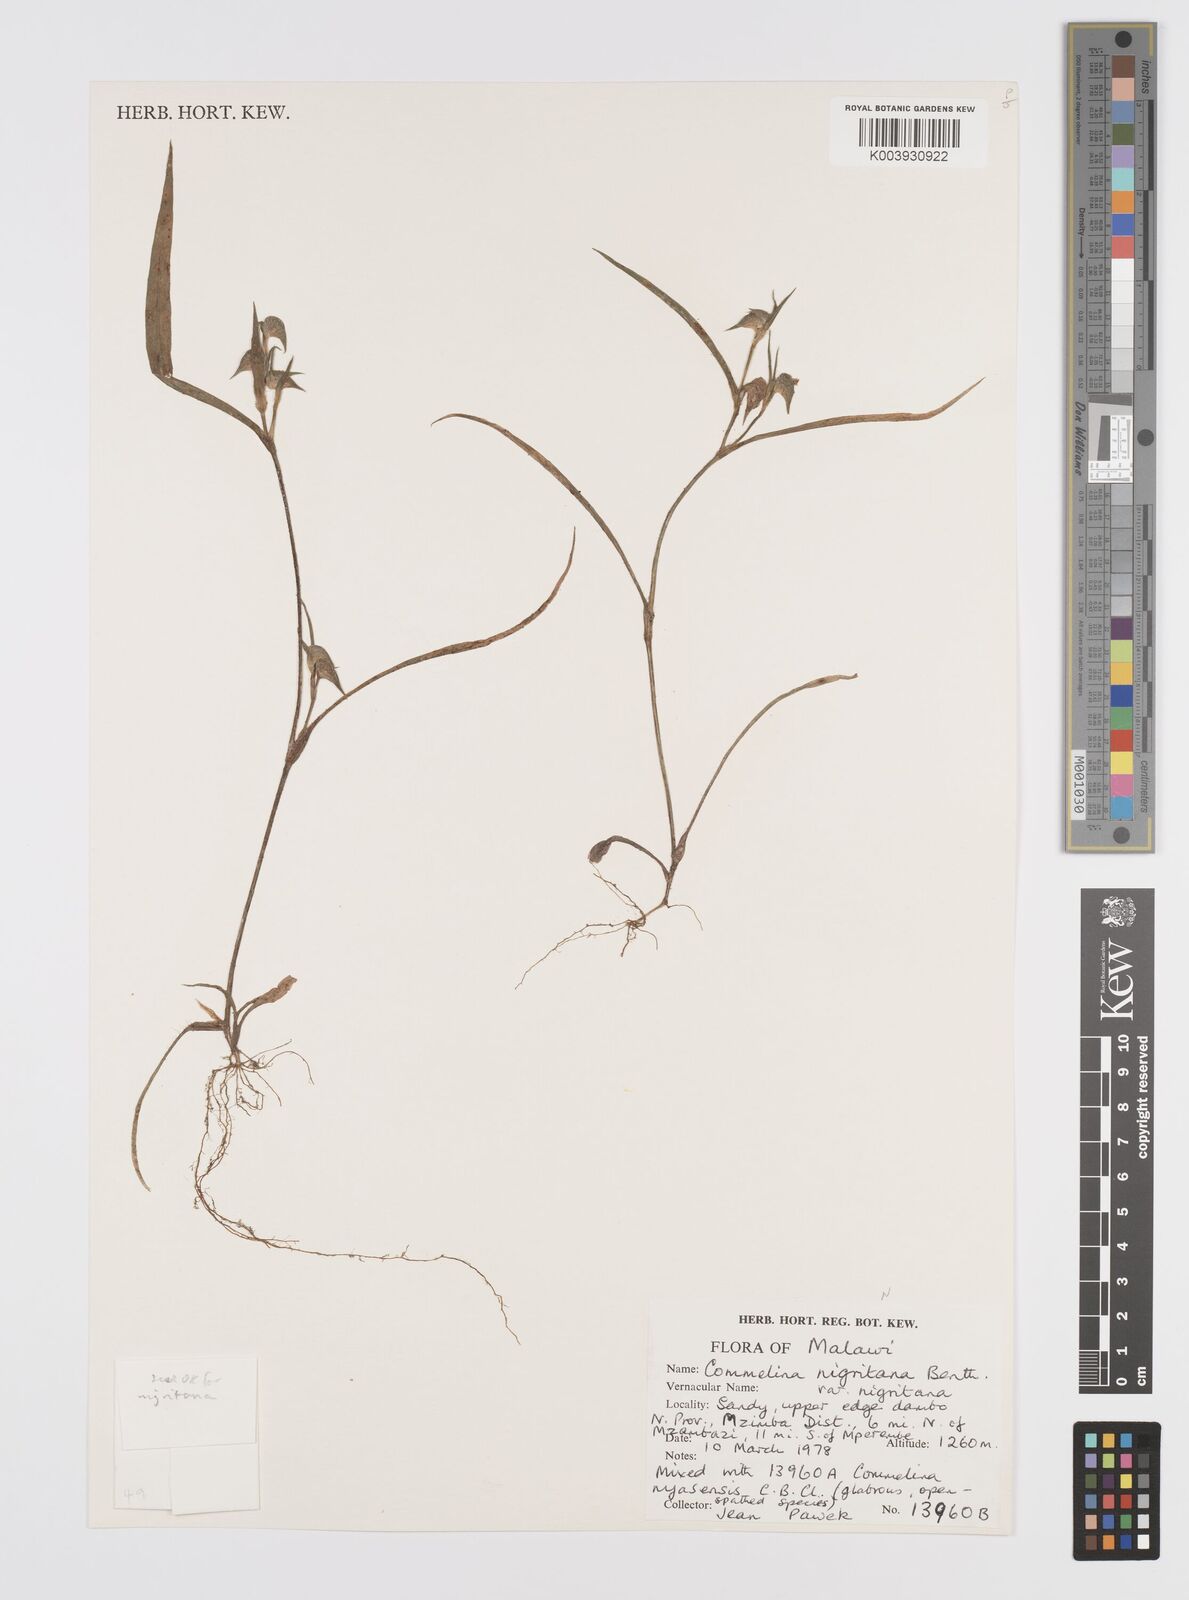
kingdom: Plantae
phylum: Tracheophyta
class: Liliopsida
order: Commelinales
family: Commelinaceae
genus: Commelina
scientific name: Commelina nigritana
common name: African dayflower
